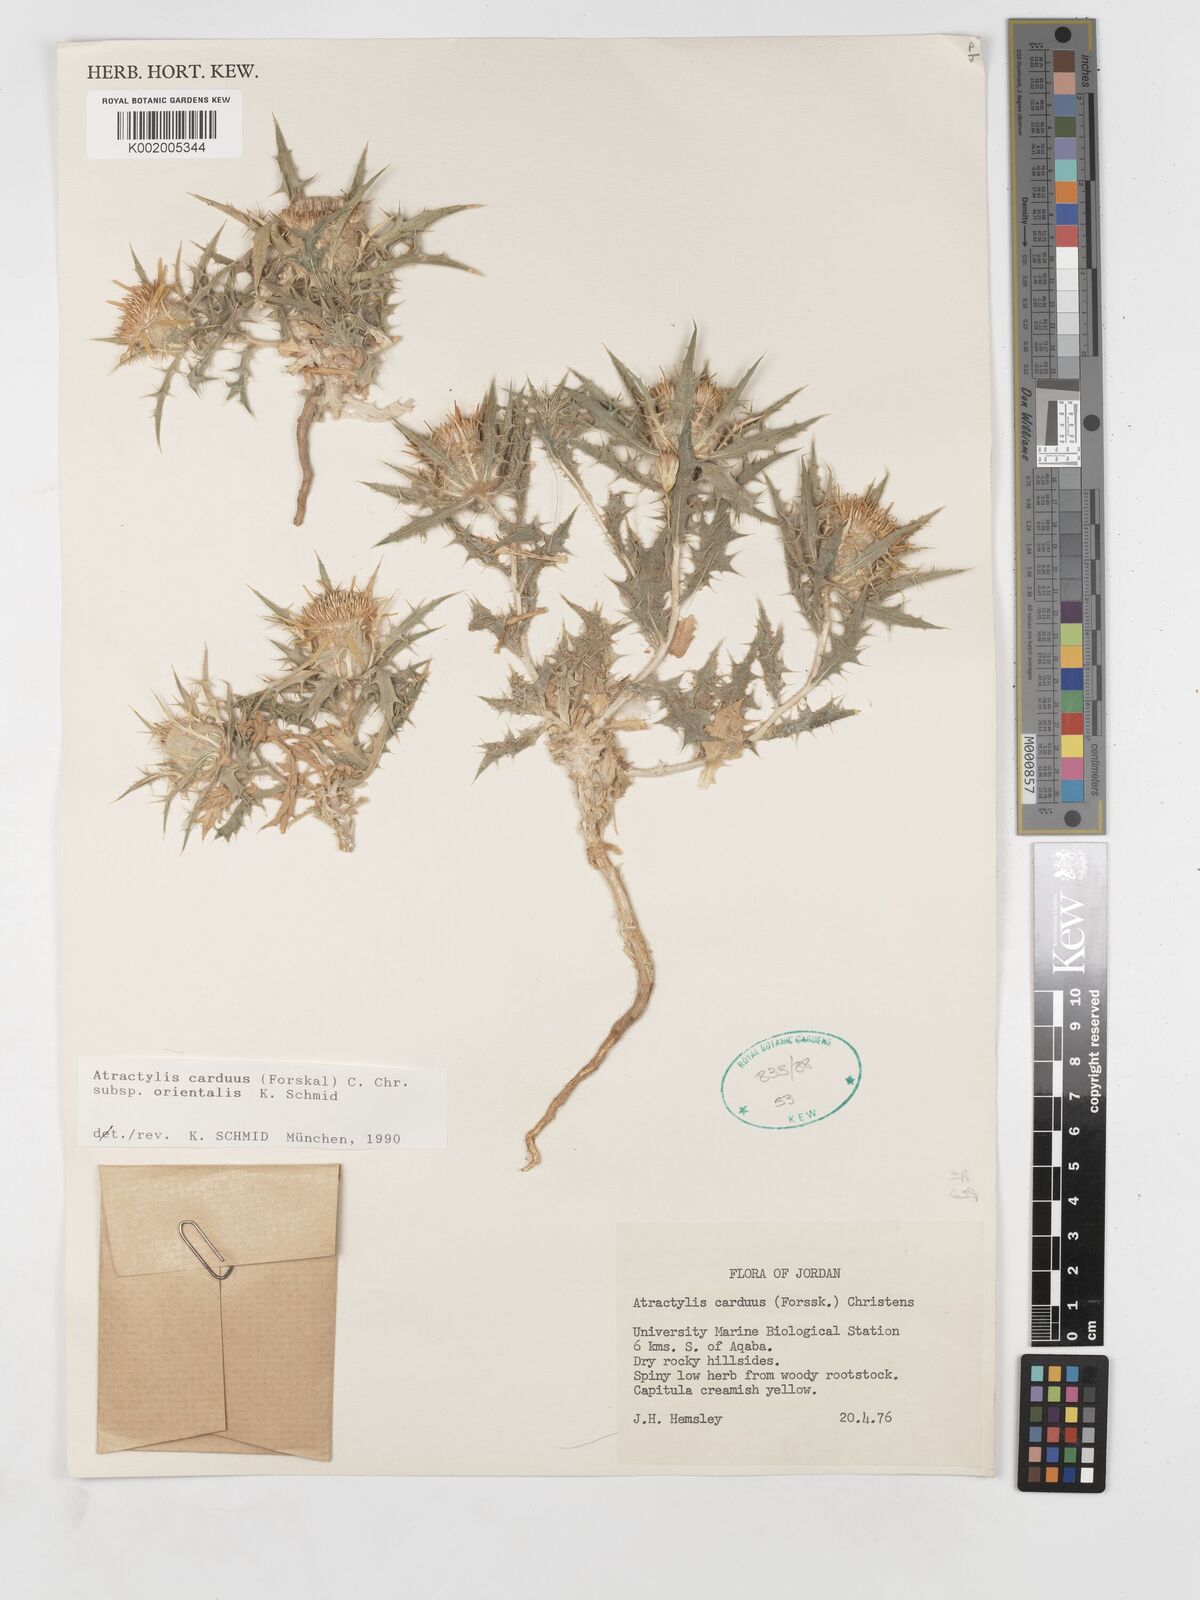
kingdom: Plantae
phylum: Tracheophyta
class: Magnoliopsida
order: Asterales
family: Asteraceae
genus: Atractylis
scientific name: Atractylis carduus
